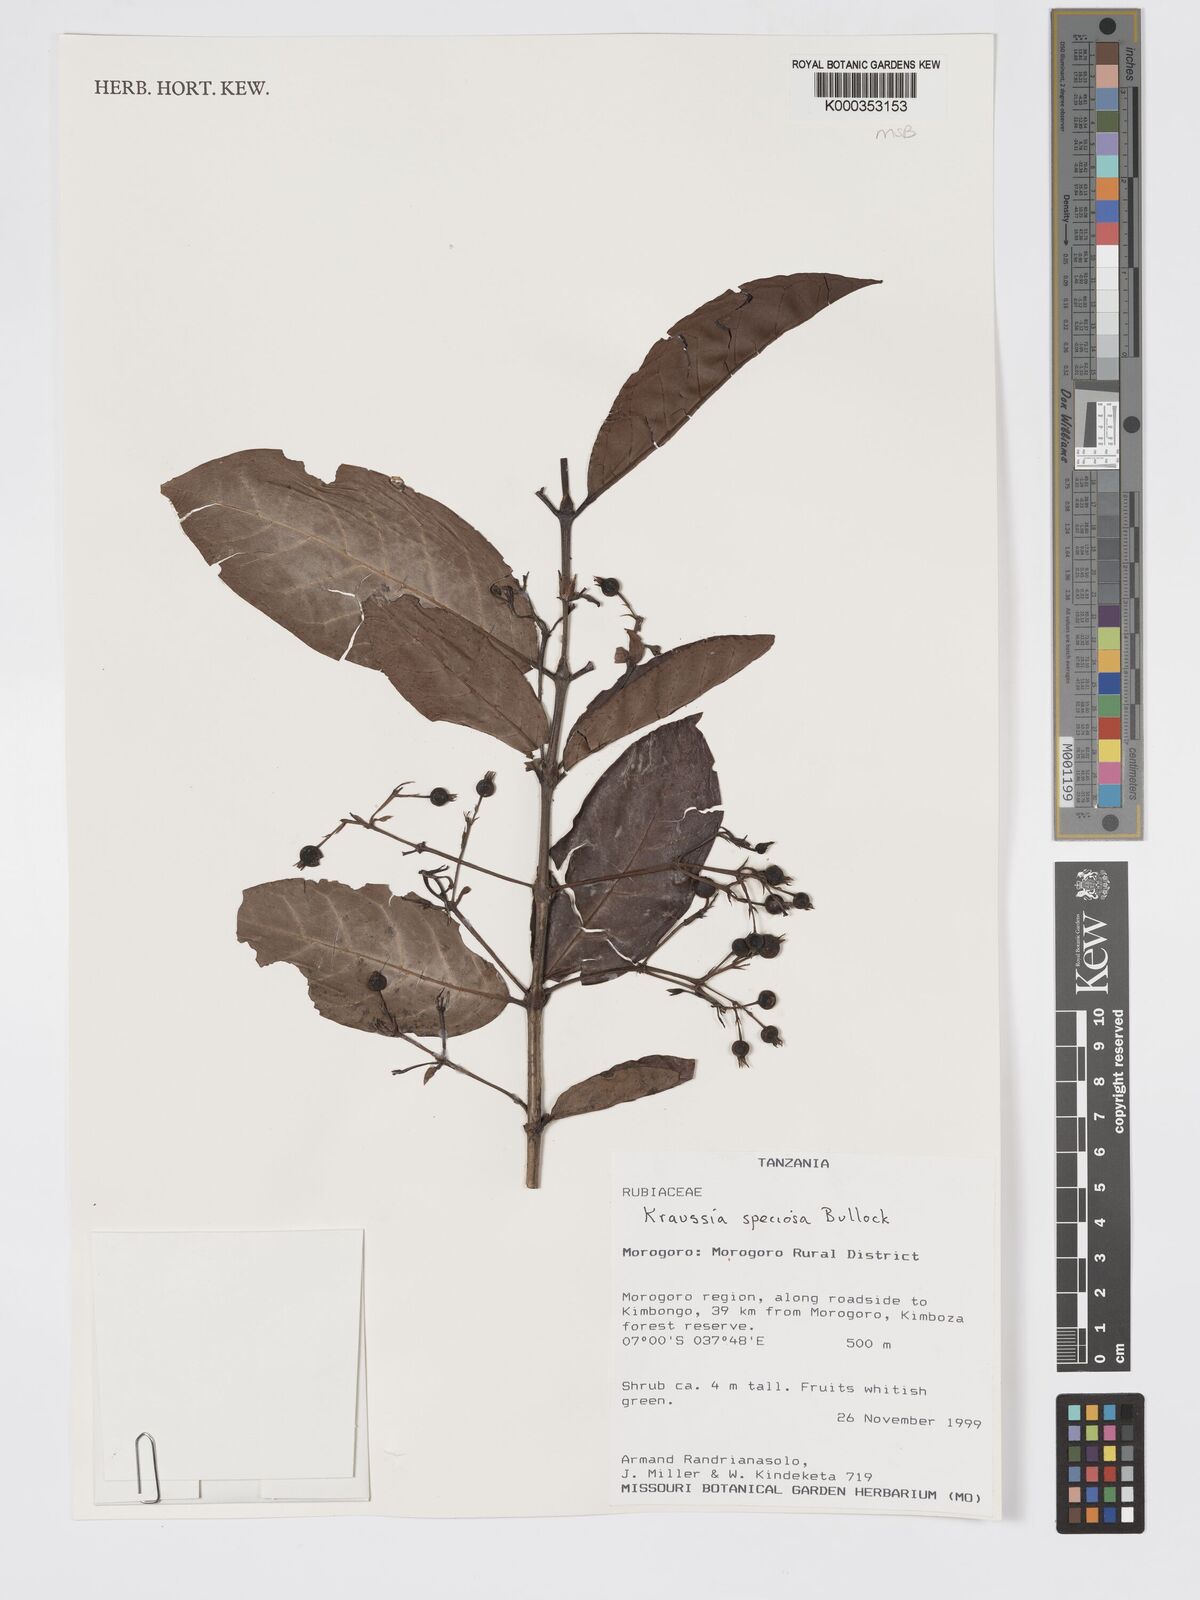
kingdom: Plantae
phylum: Tracheophyta
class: Magnoliopsida
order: Gentianales
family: Rubiaceae
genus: Kraussia
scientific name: Kraussia speciosa
